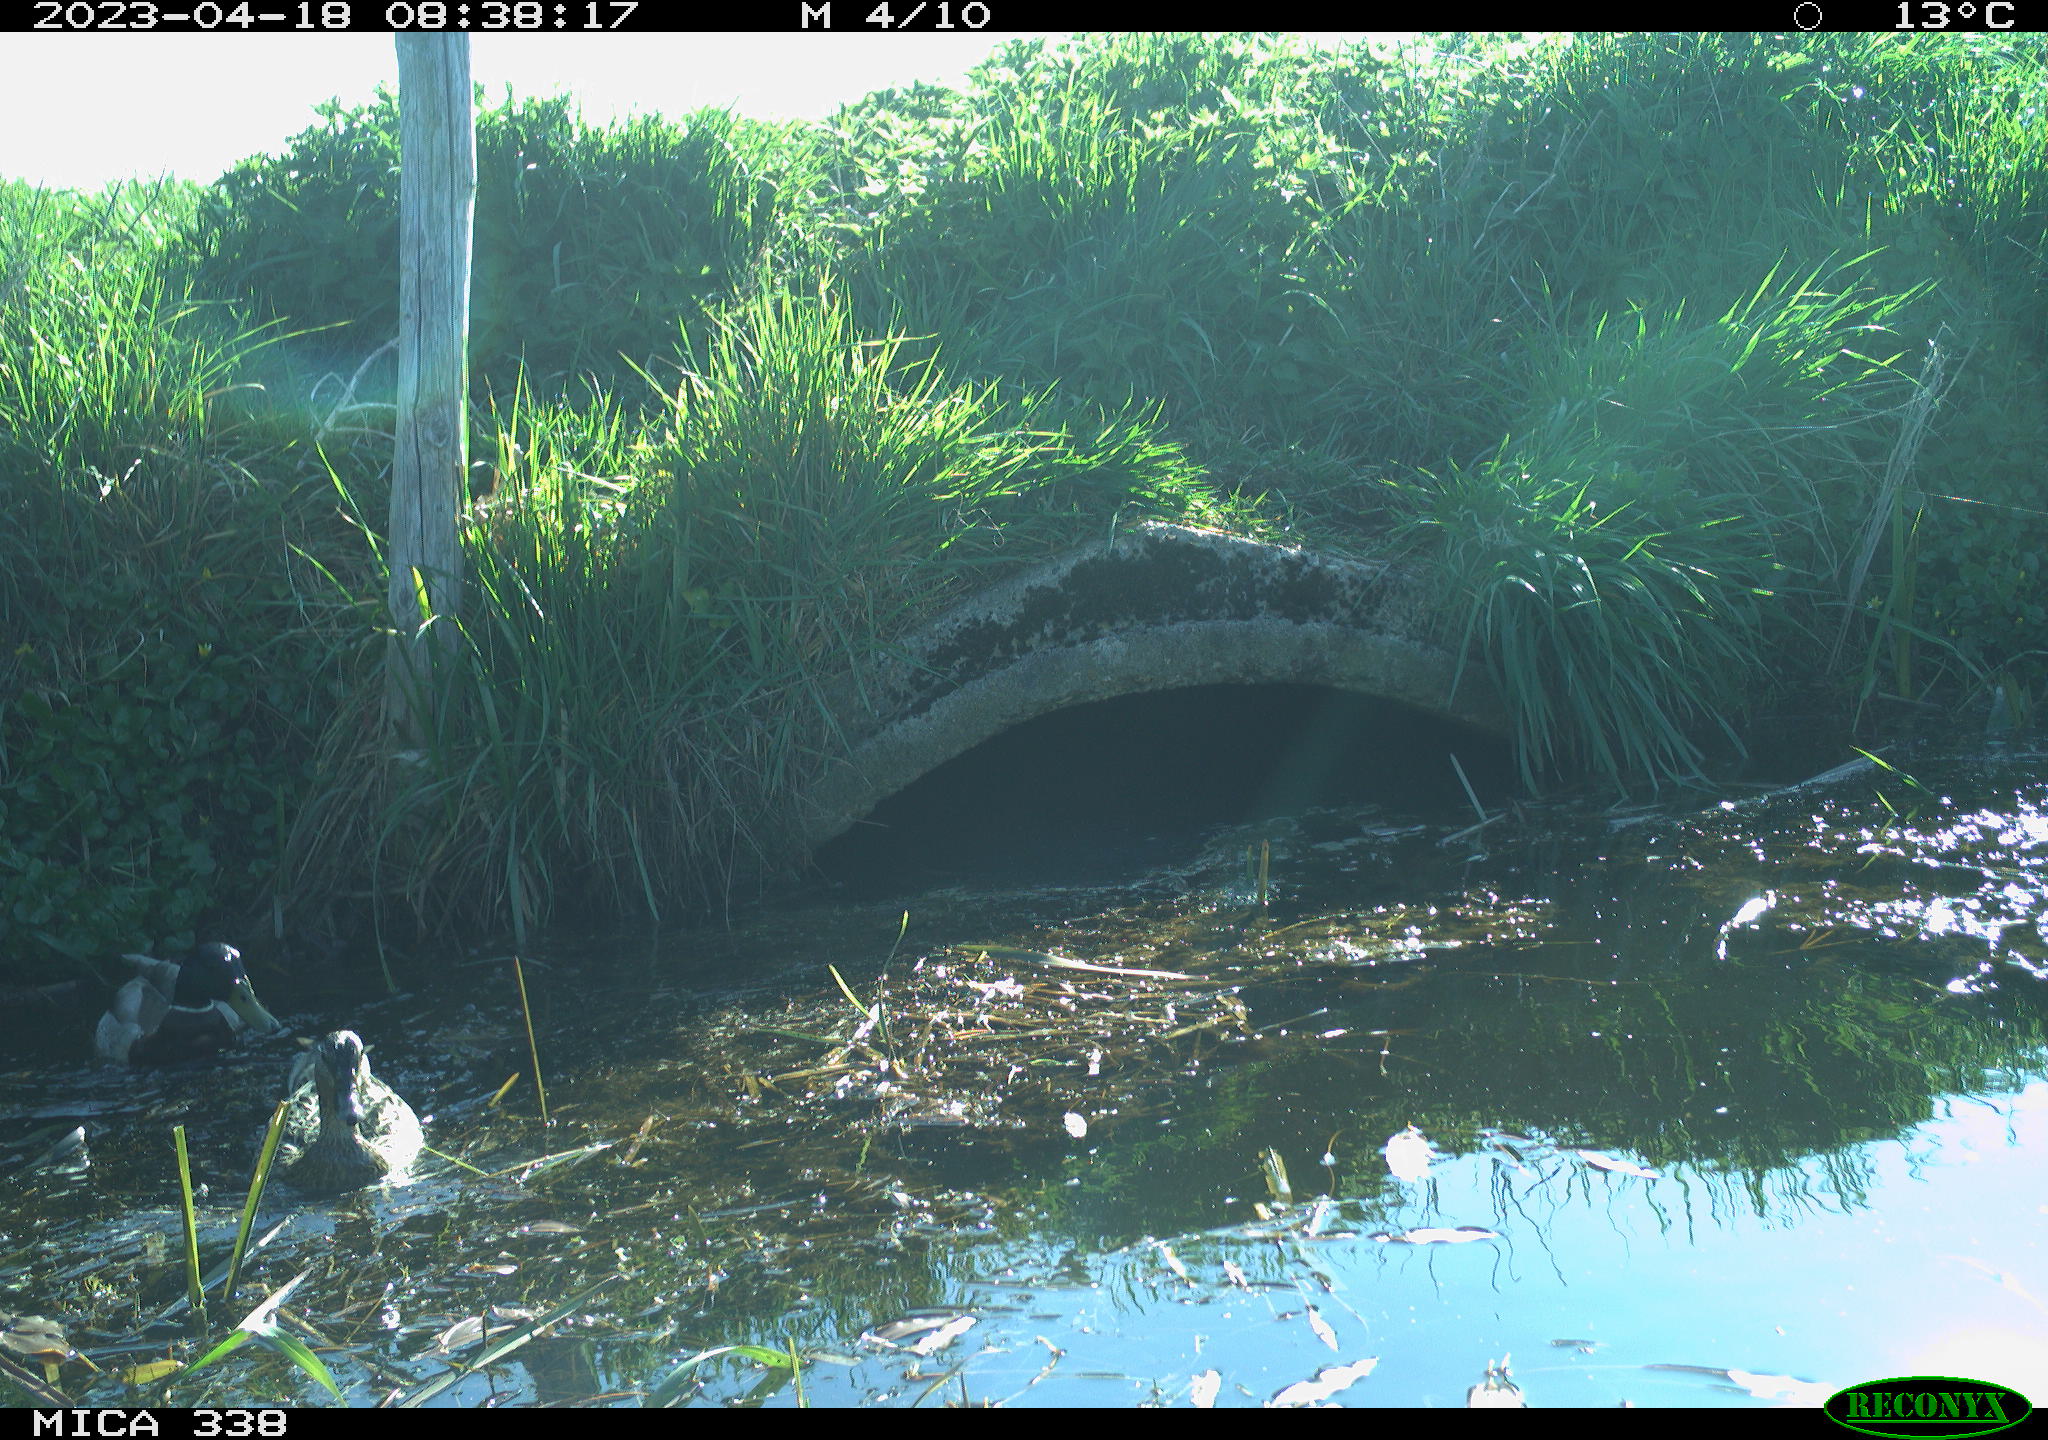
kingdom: Animalia
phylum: Chordata
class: Aves
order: Anseriformes
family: Anatidae
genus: Anas
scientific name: Anas platyrhynchos
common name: Mallard
